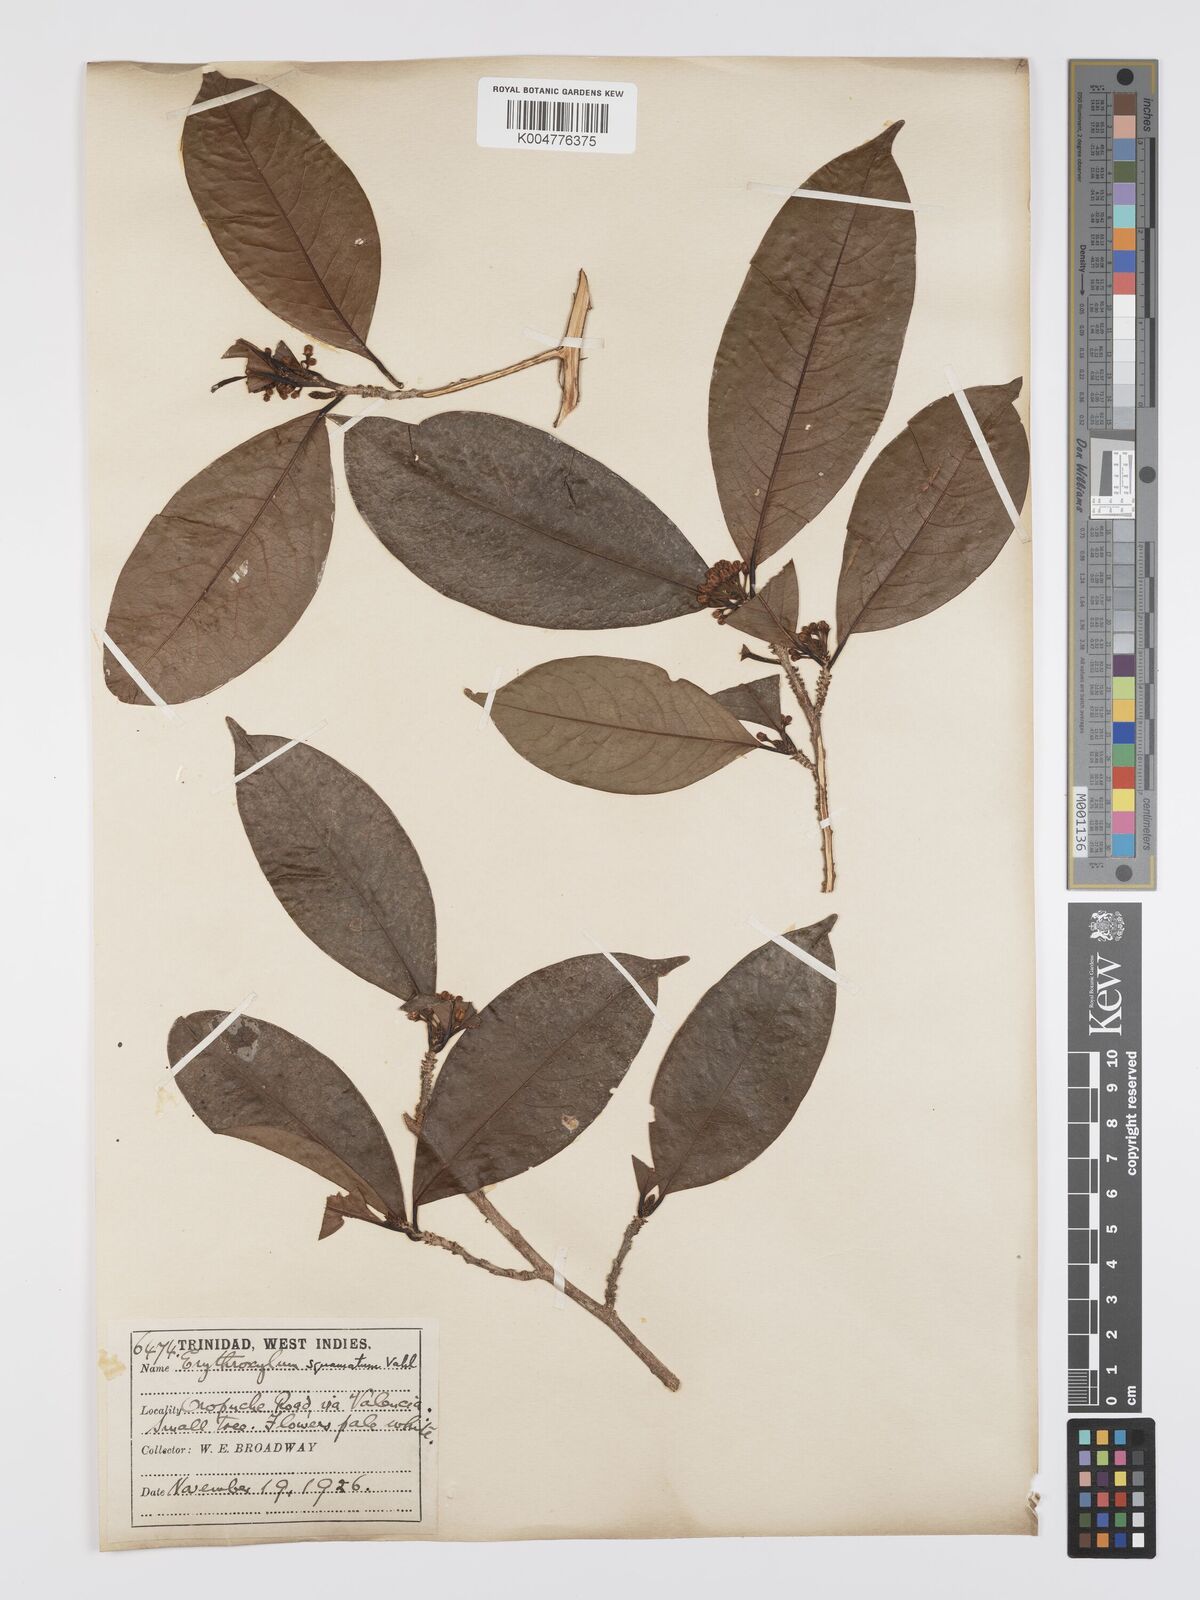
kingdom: Plantae
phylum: Tracheophyta
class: Magnoliopsida
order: Malpighiales
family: Erythroxylaceae
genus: Erythroxylum
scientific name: Erythroxylum squamatum
